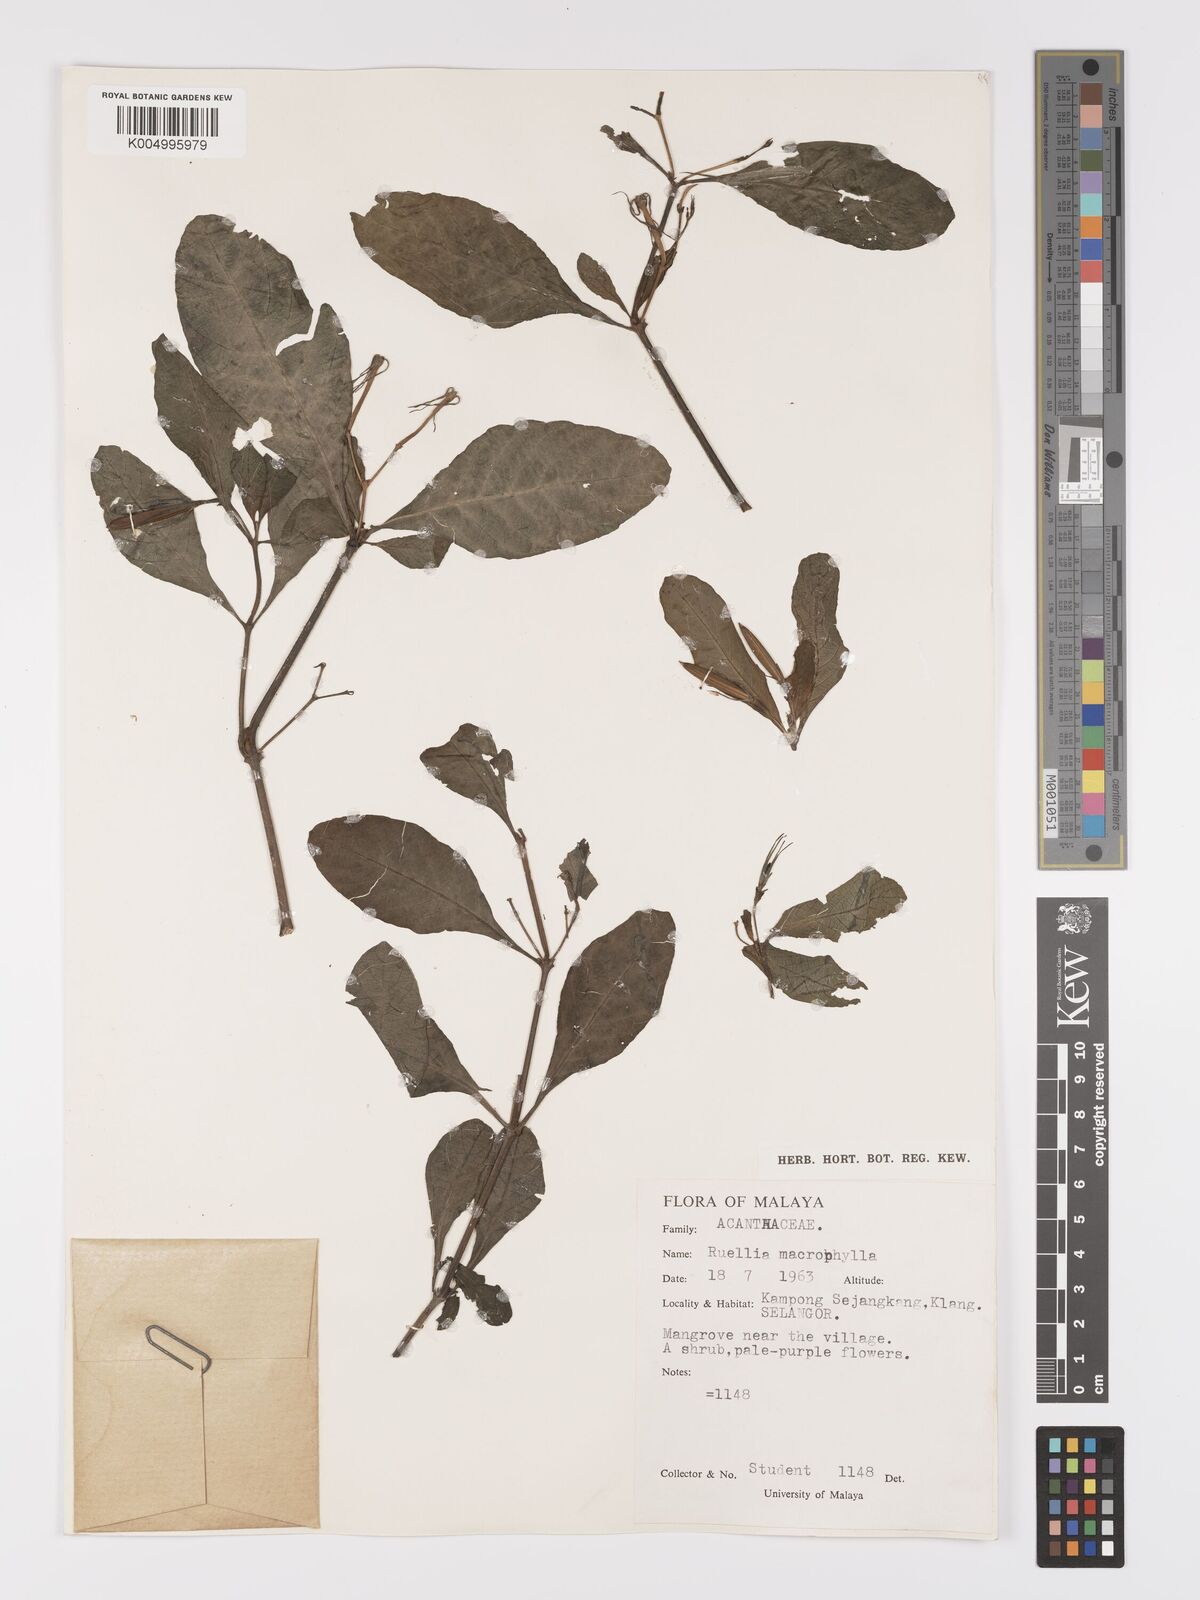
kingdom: Plantae
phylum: Tracheophyta
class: Magnoliopsida
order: Lamiales
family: Acanthaceae
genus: Ruellia
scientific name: Ruellia
